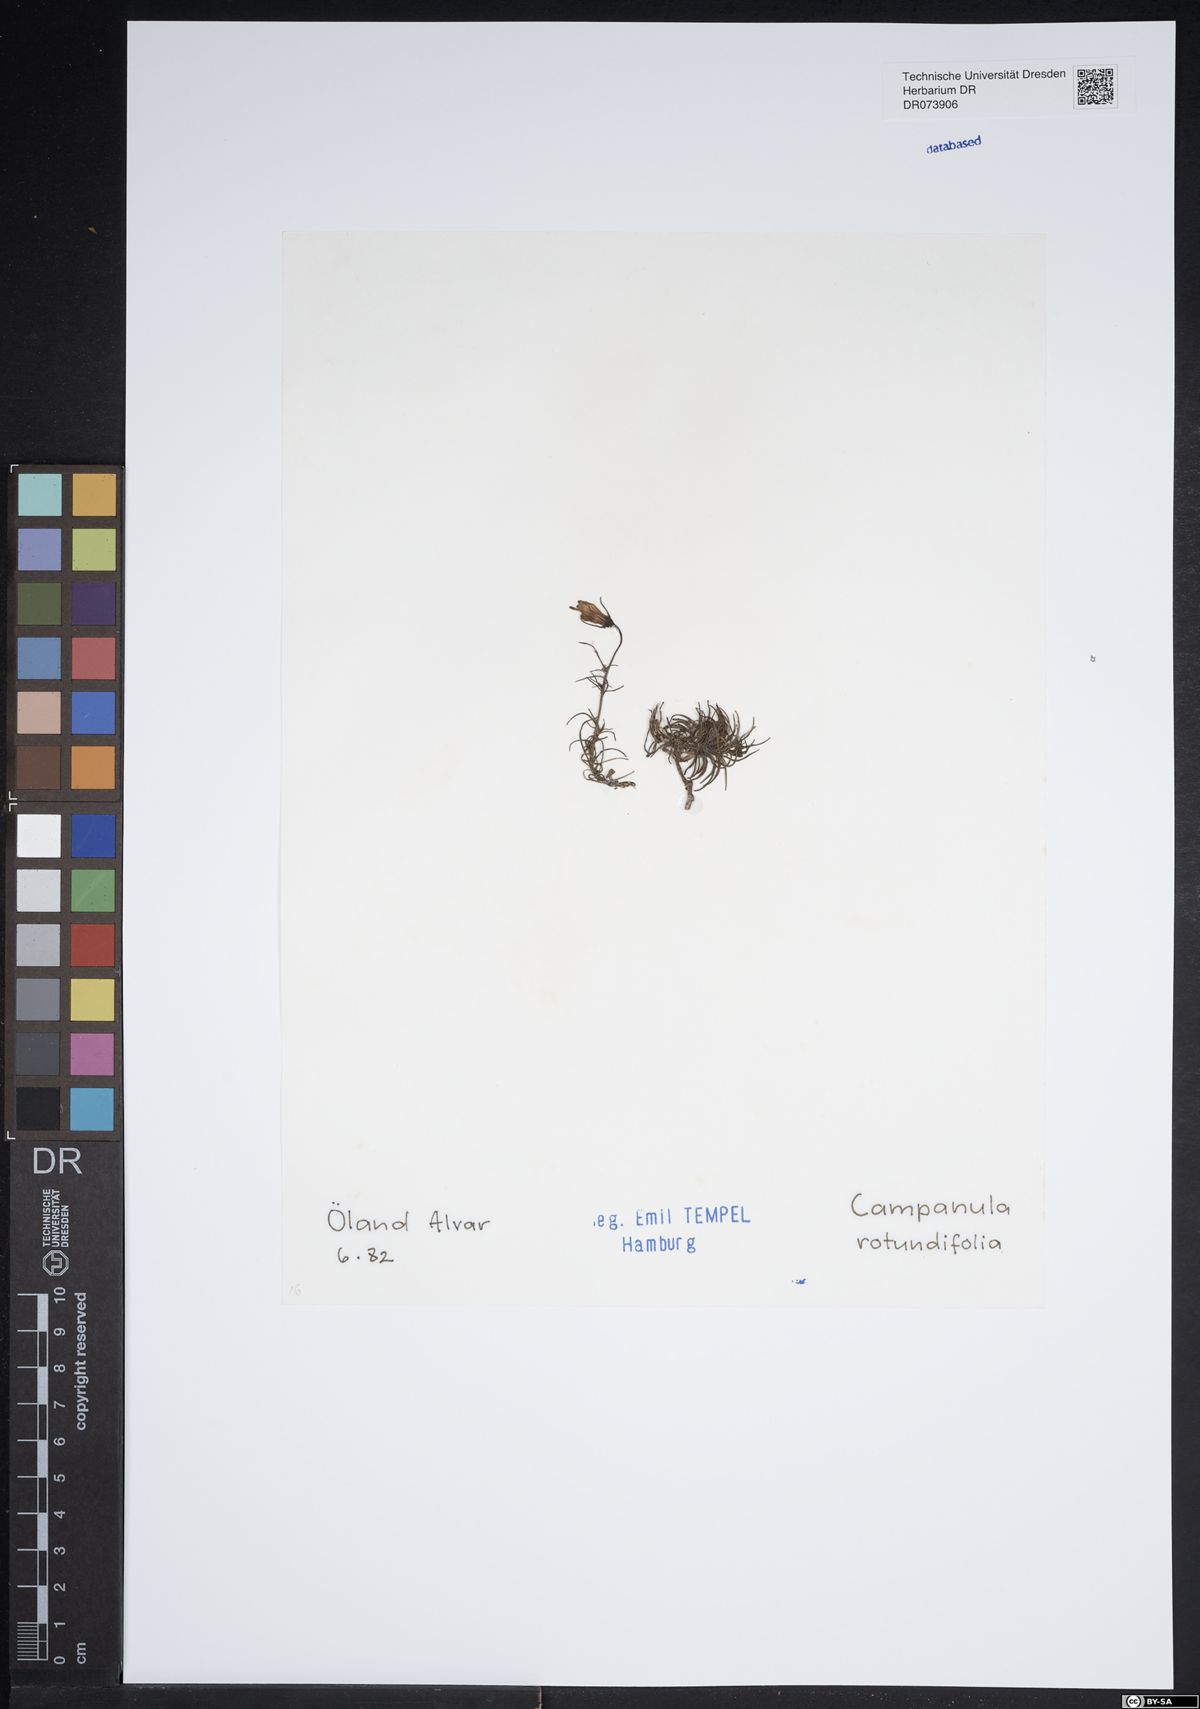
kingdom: Plantae
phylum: Tracheophyta
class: Magnoliopsida
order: Asterales
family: Campanulaceae
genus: Campanula
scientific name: Campanula rotundifolia
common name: Harebell
